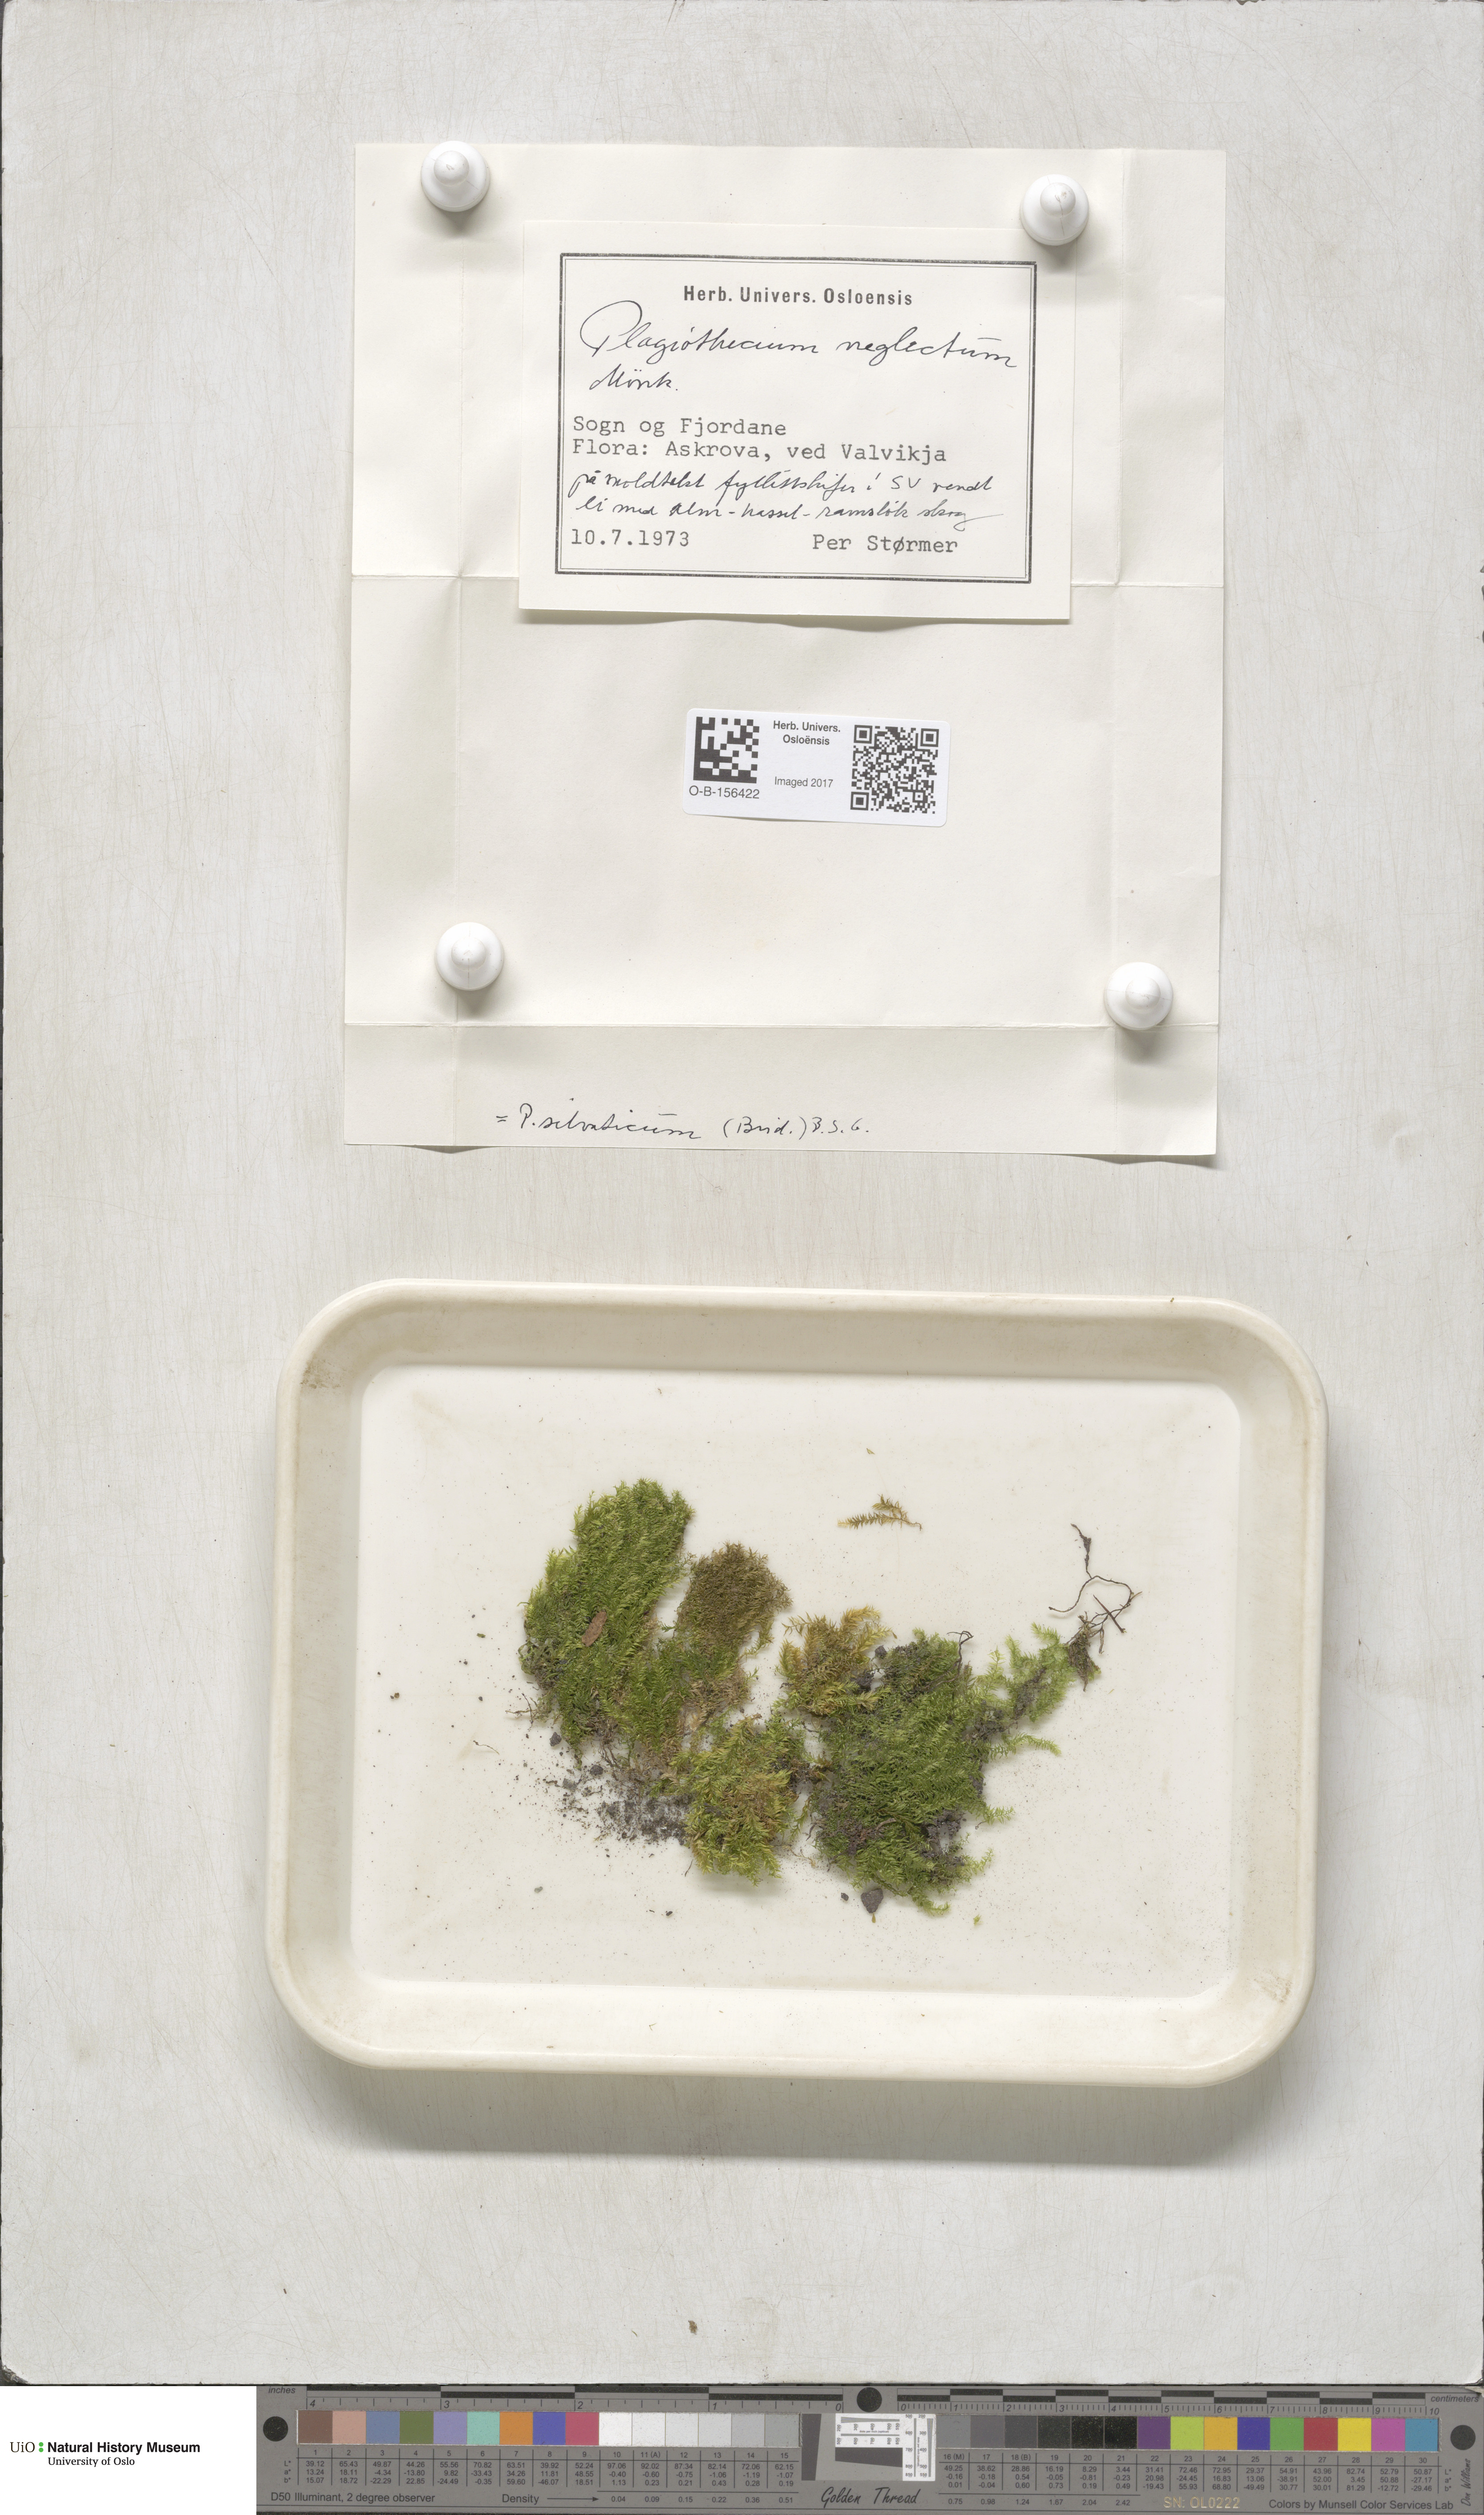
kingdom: Plantae
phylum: Bryophyta
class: Bryopsida
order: Hypnales
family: Plagiotheciaceae
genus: Plagiothecium
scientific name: Plagiothecium nemorale
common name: Woodsy silk-moss
